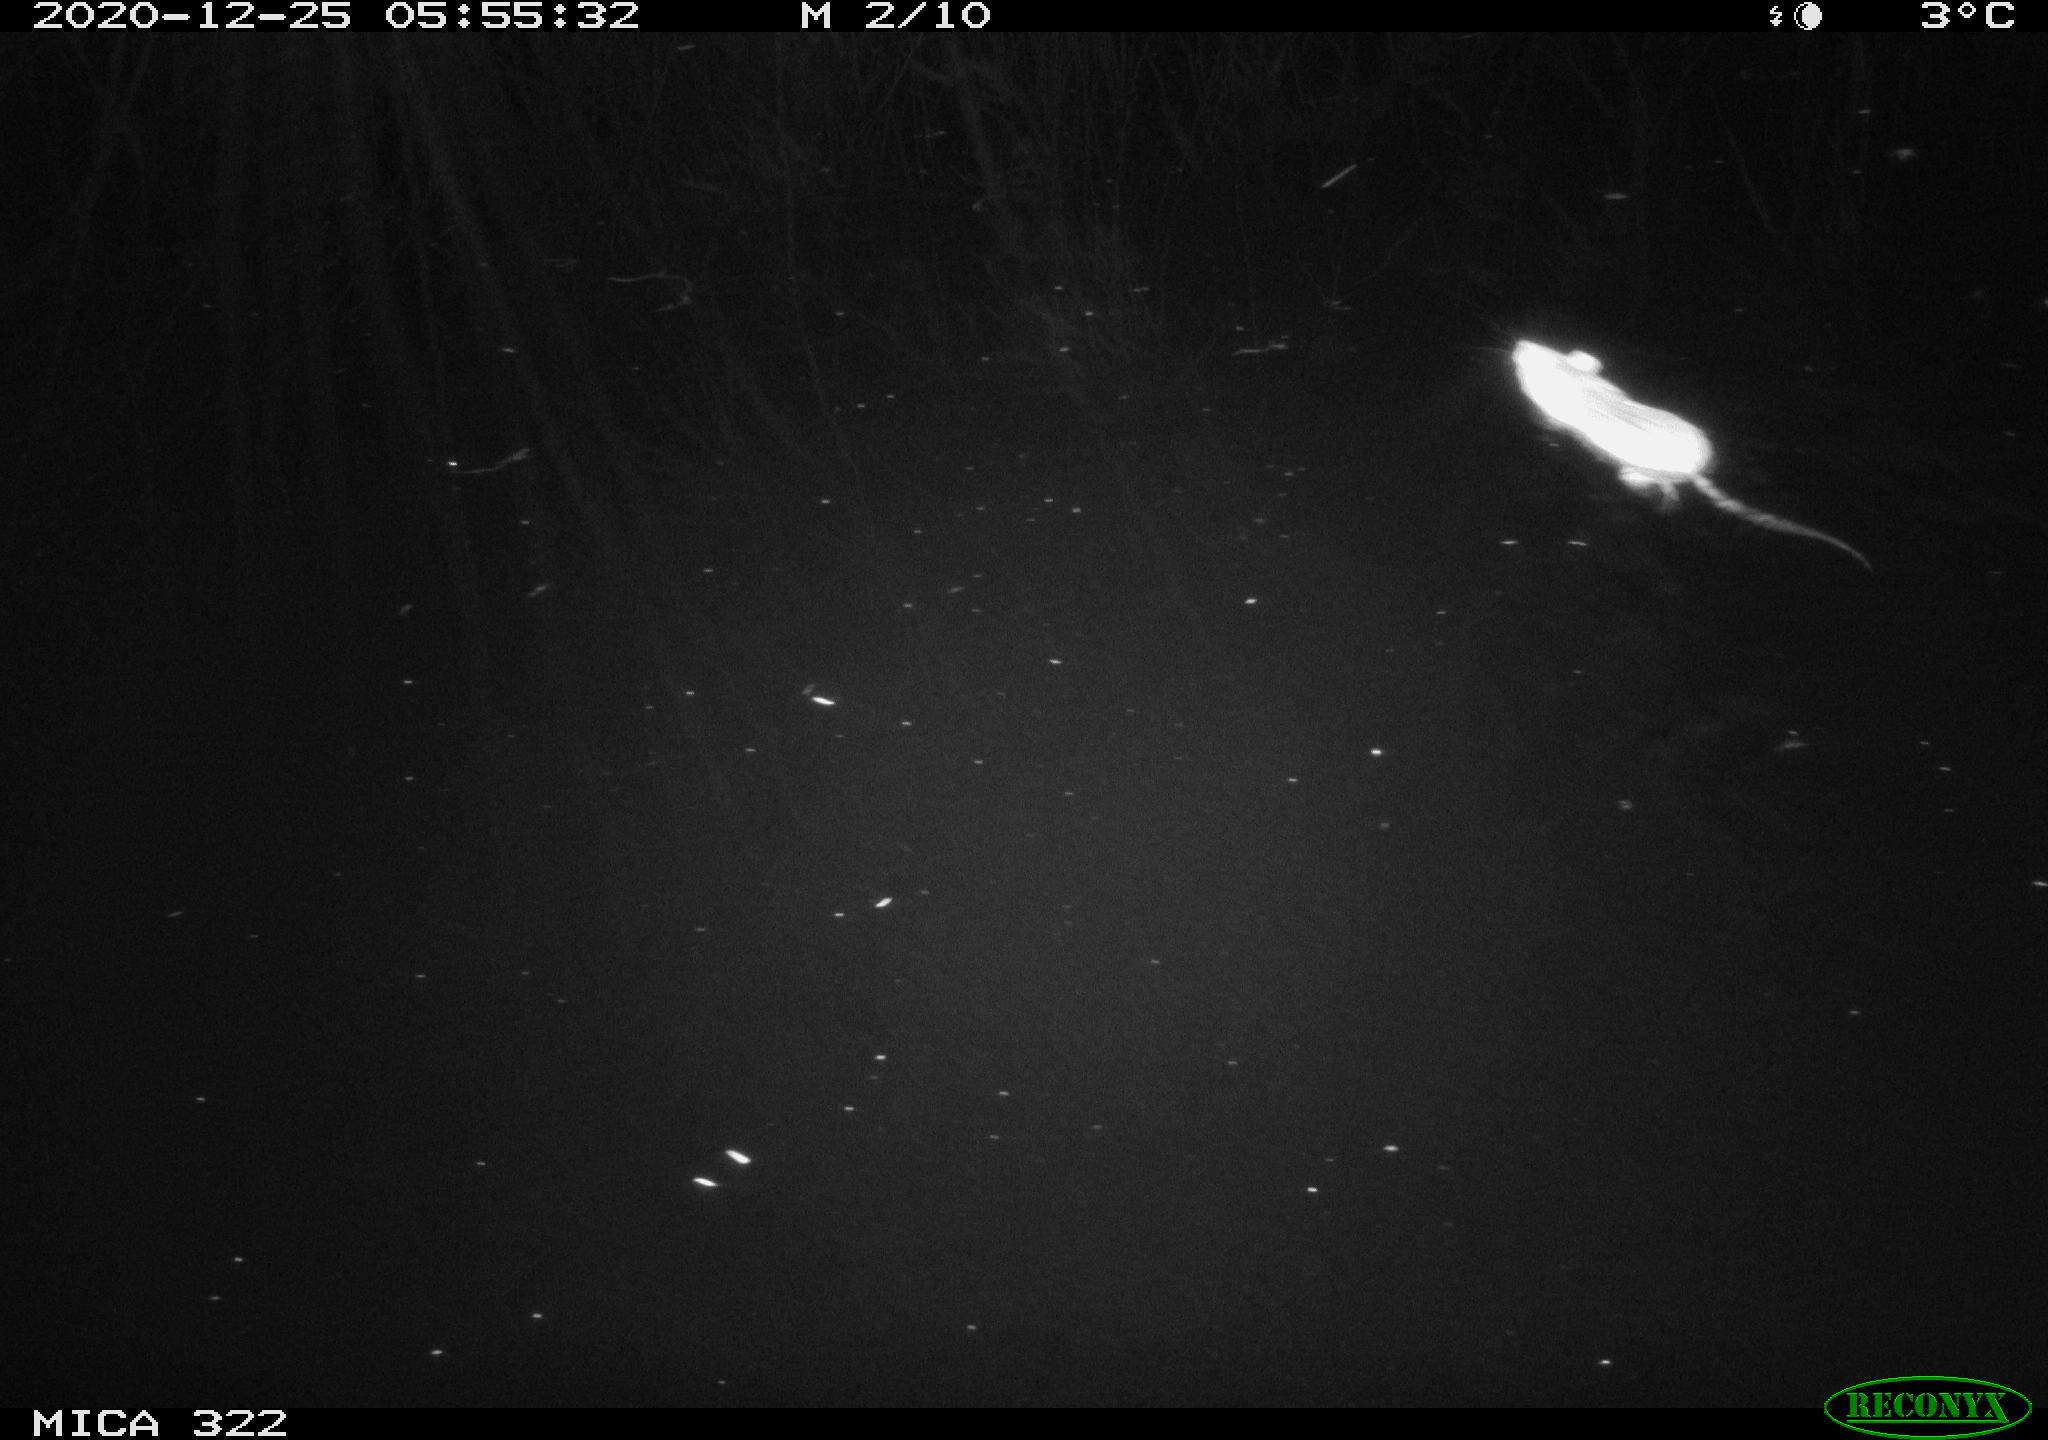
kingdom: Animalia
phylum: Chordata
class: Mammalia
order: Rodentia
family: Muridae
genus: Rattus
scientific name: Rattus norvegicus
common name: Brown rat
